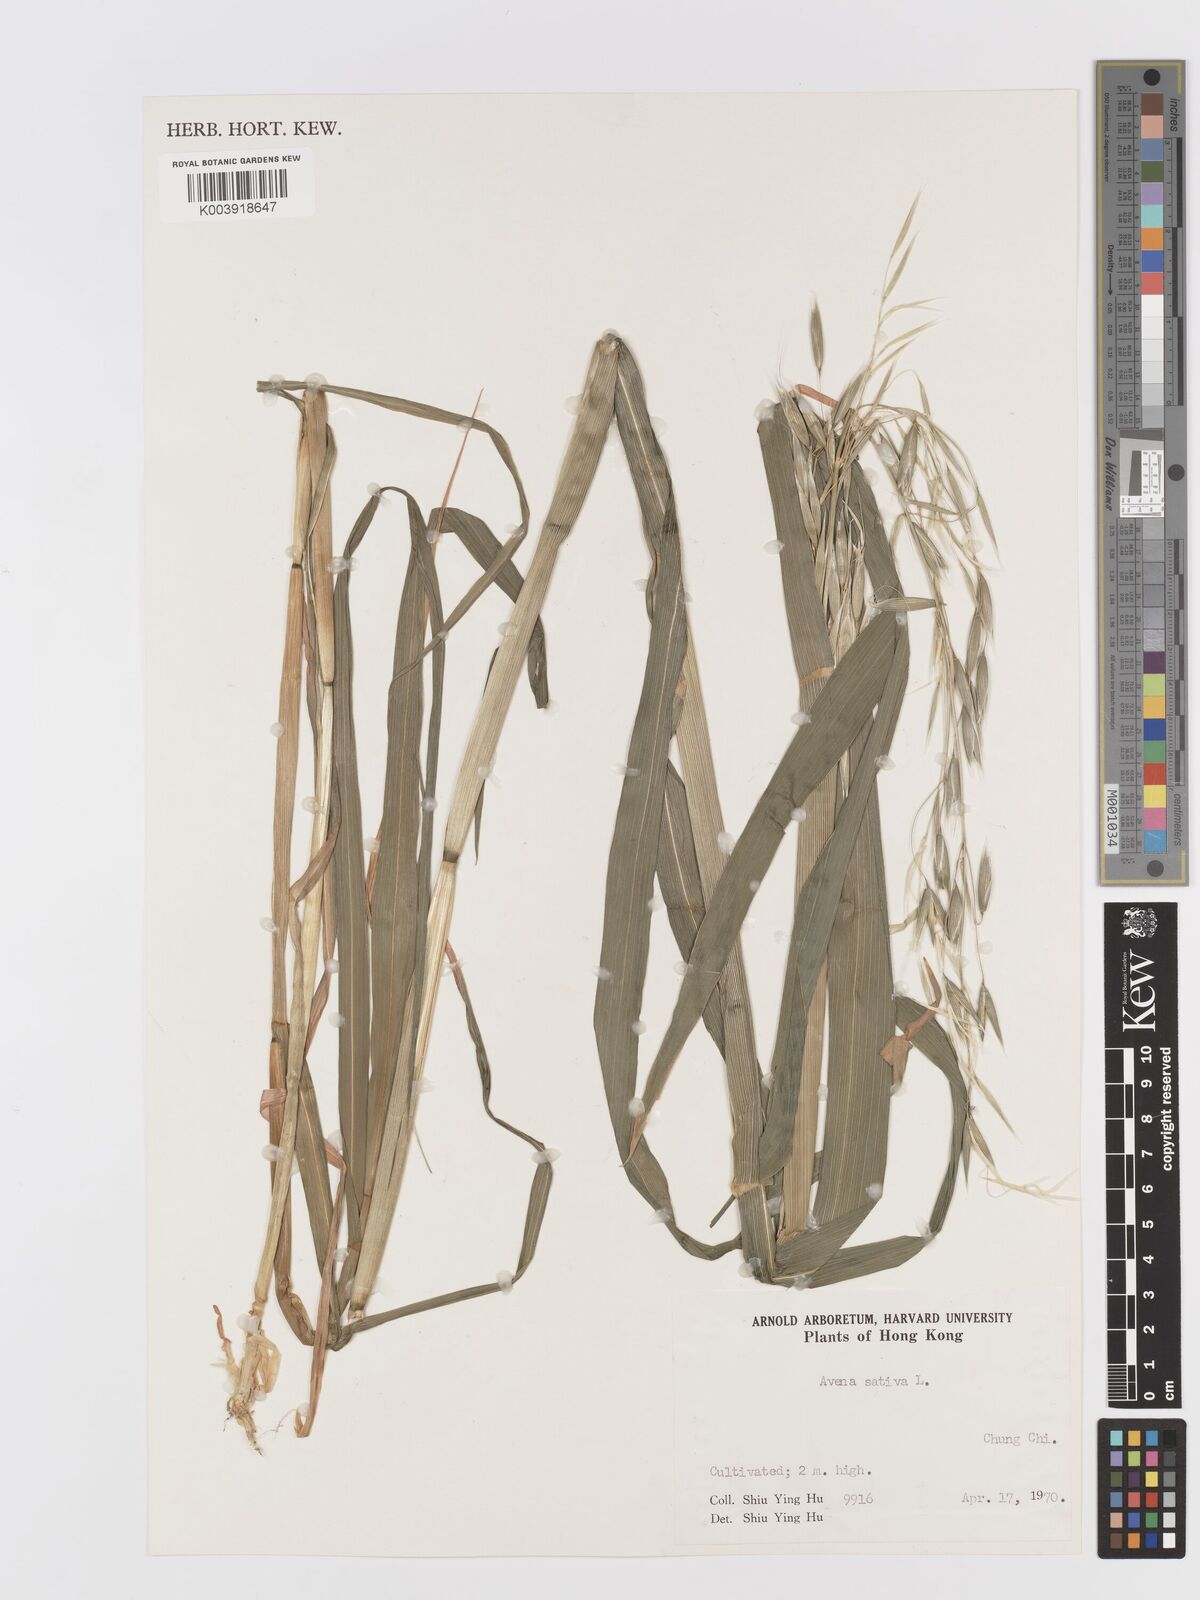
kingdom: Plantae
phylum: Tracheophyta
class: Liliopsida
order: Poales
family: Poaceae
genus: Avena
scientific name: Avena sativa
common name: Oat
